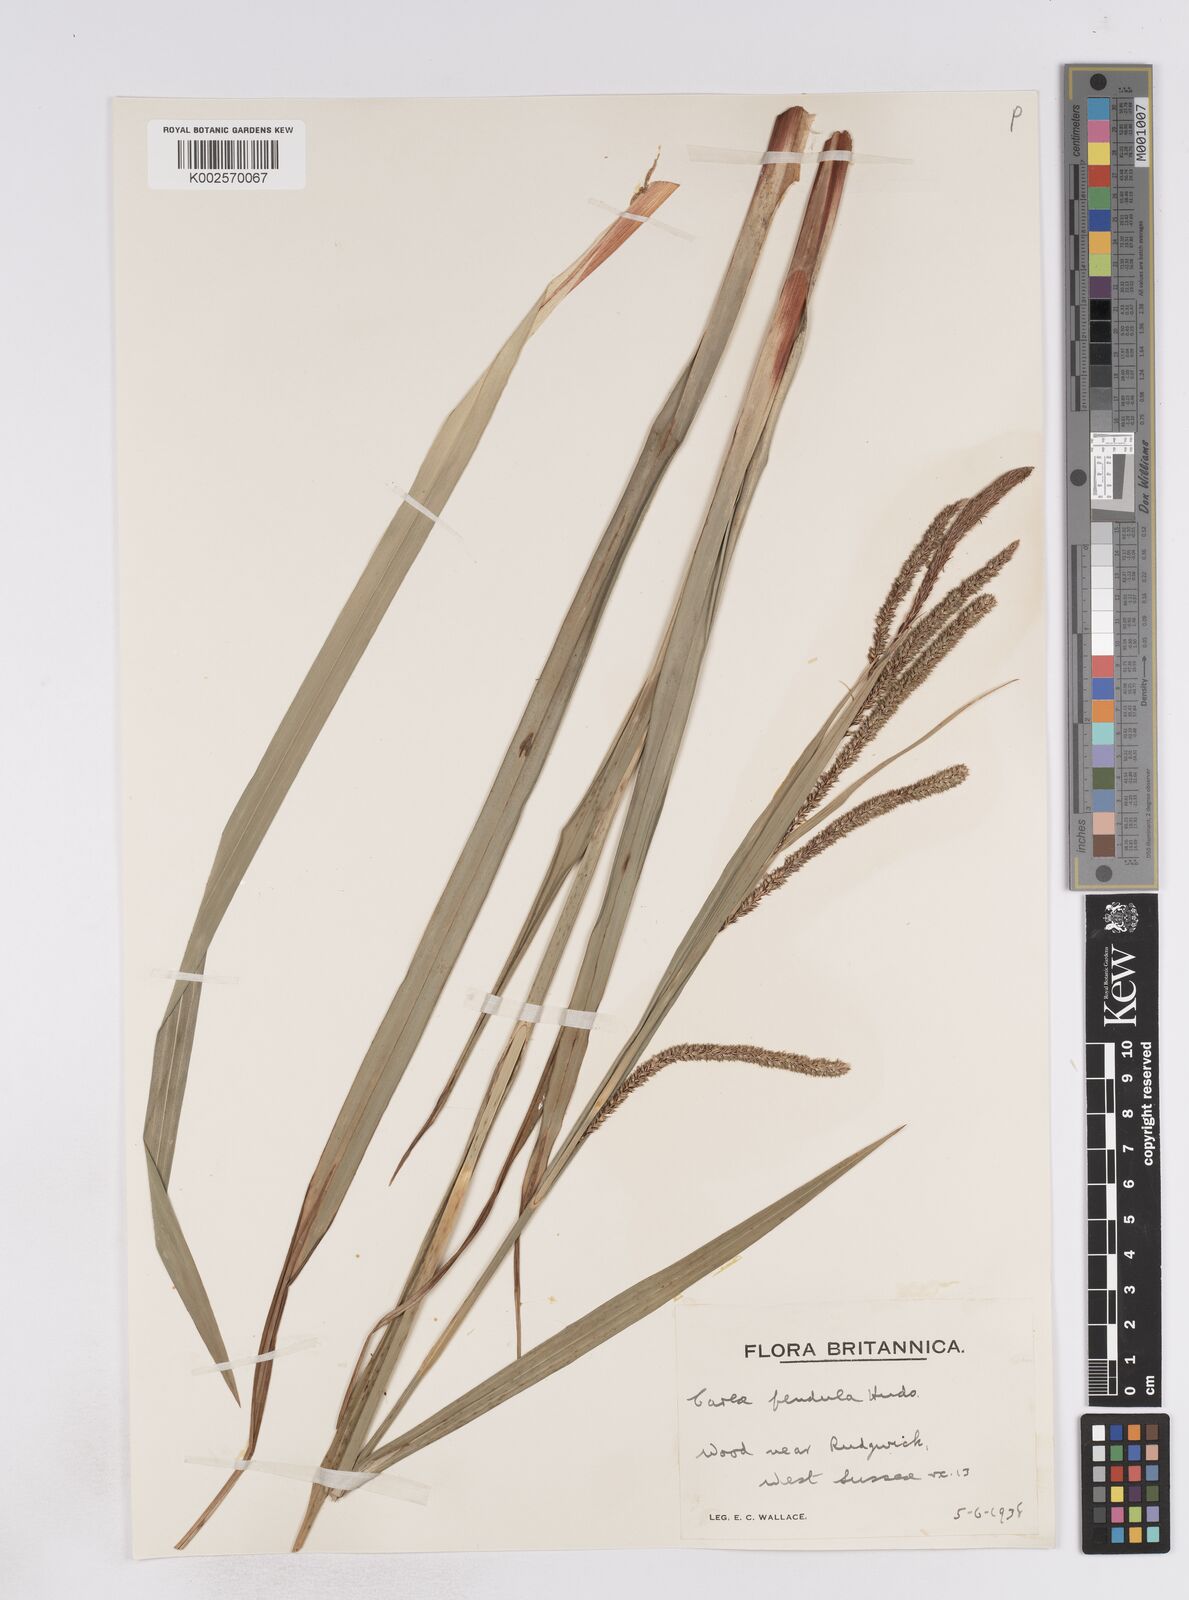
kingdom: Plantae
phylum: Tracheophyta
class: Liliopsida
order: Poales
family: Cyperaceae
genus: Carex
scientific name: Carex pendula
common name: Pendulous sedge
